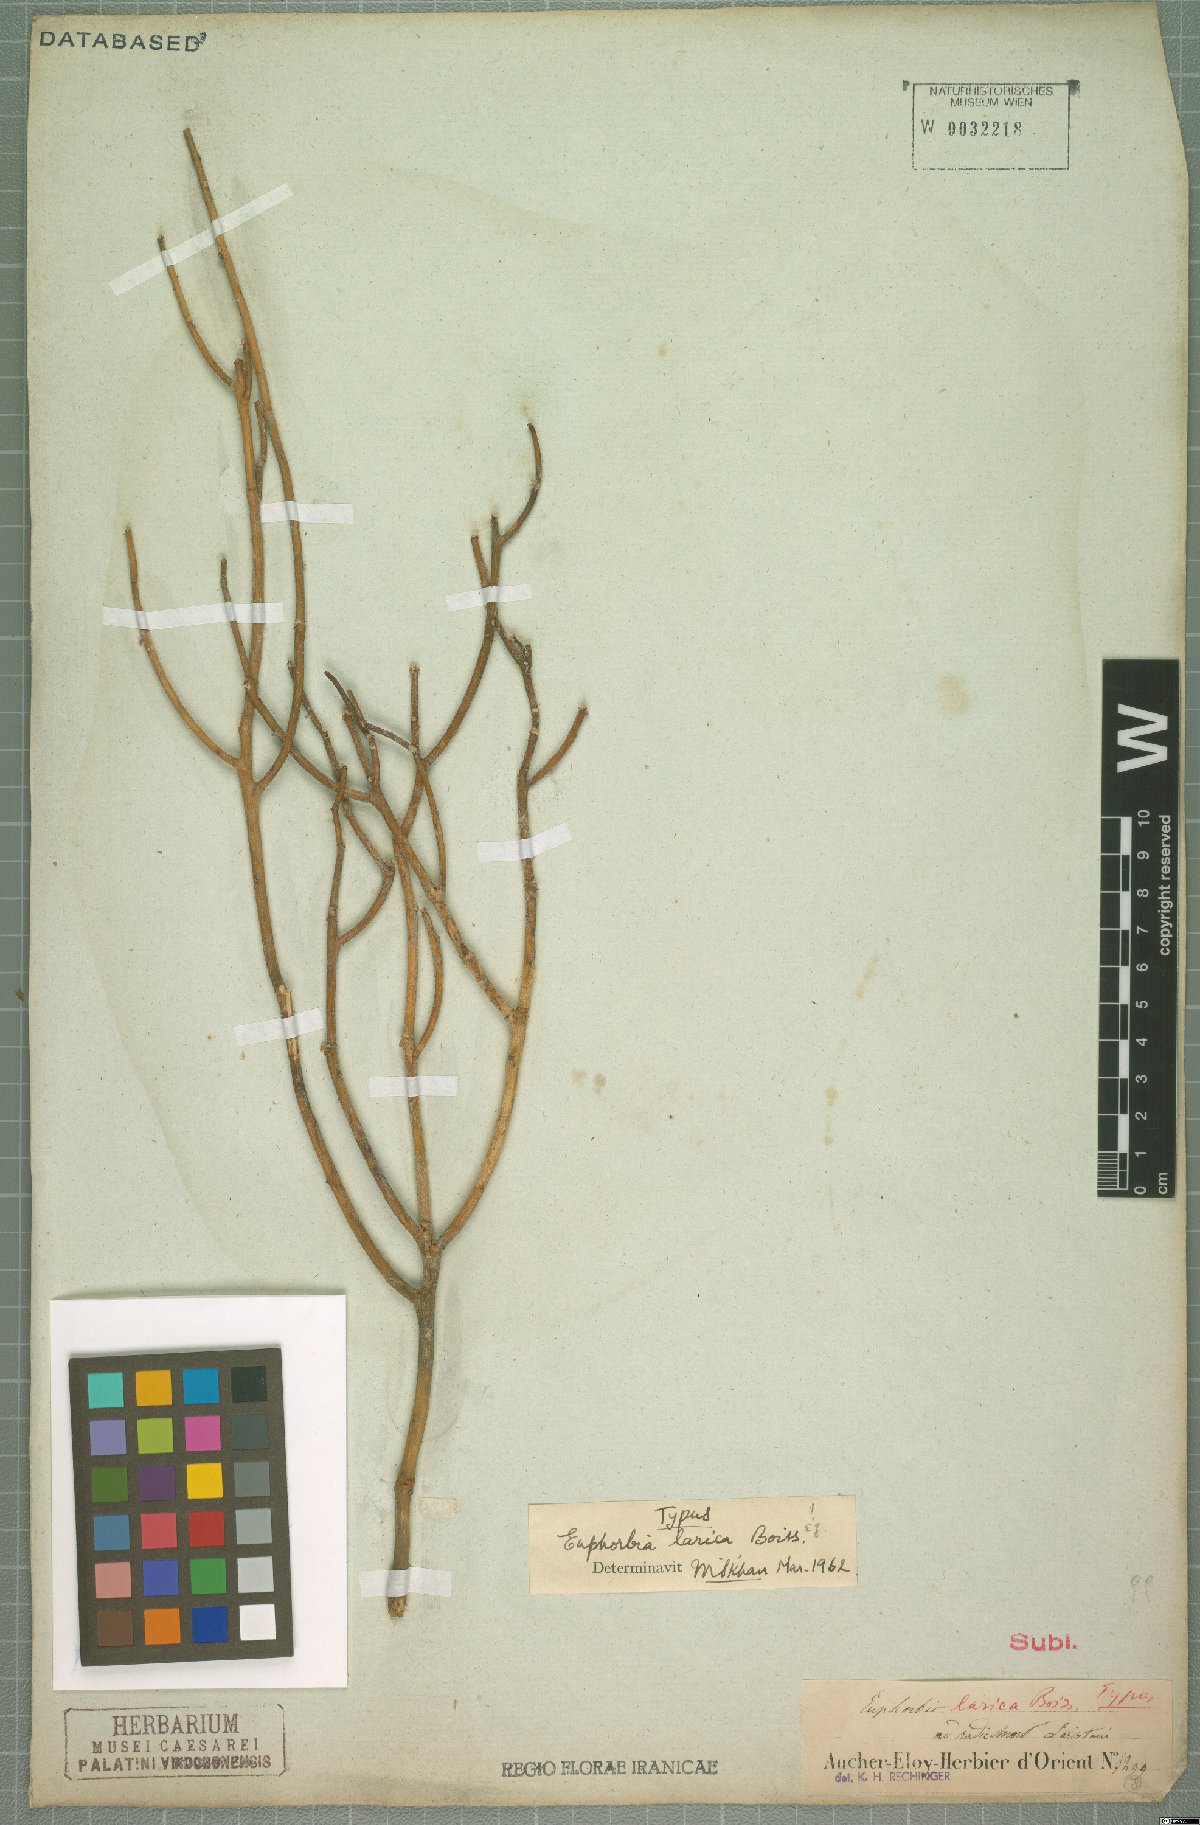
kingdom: Plantae
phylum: Tracheophyta
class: Magnoliopsida
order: Malpighiales
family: Euphorbiaceae
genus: Euphorbia
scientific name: Euphorbia larica
